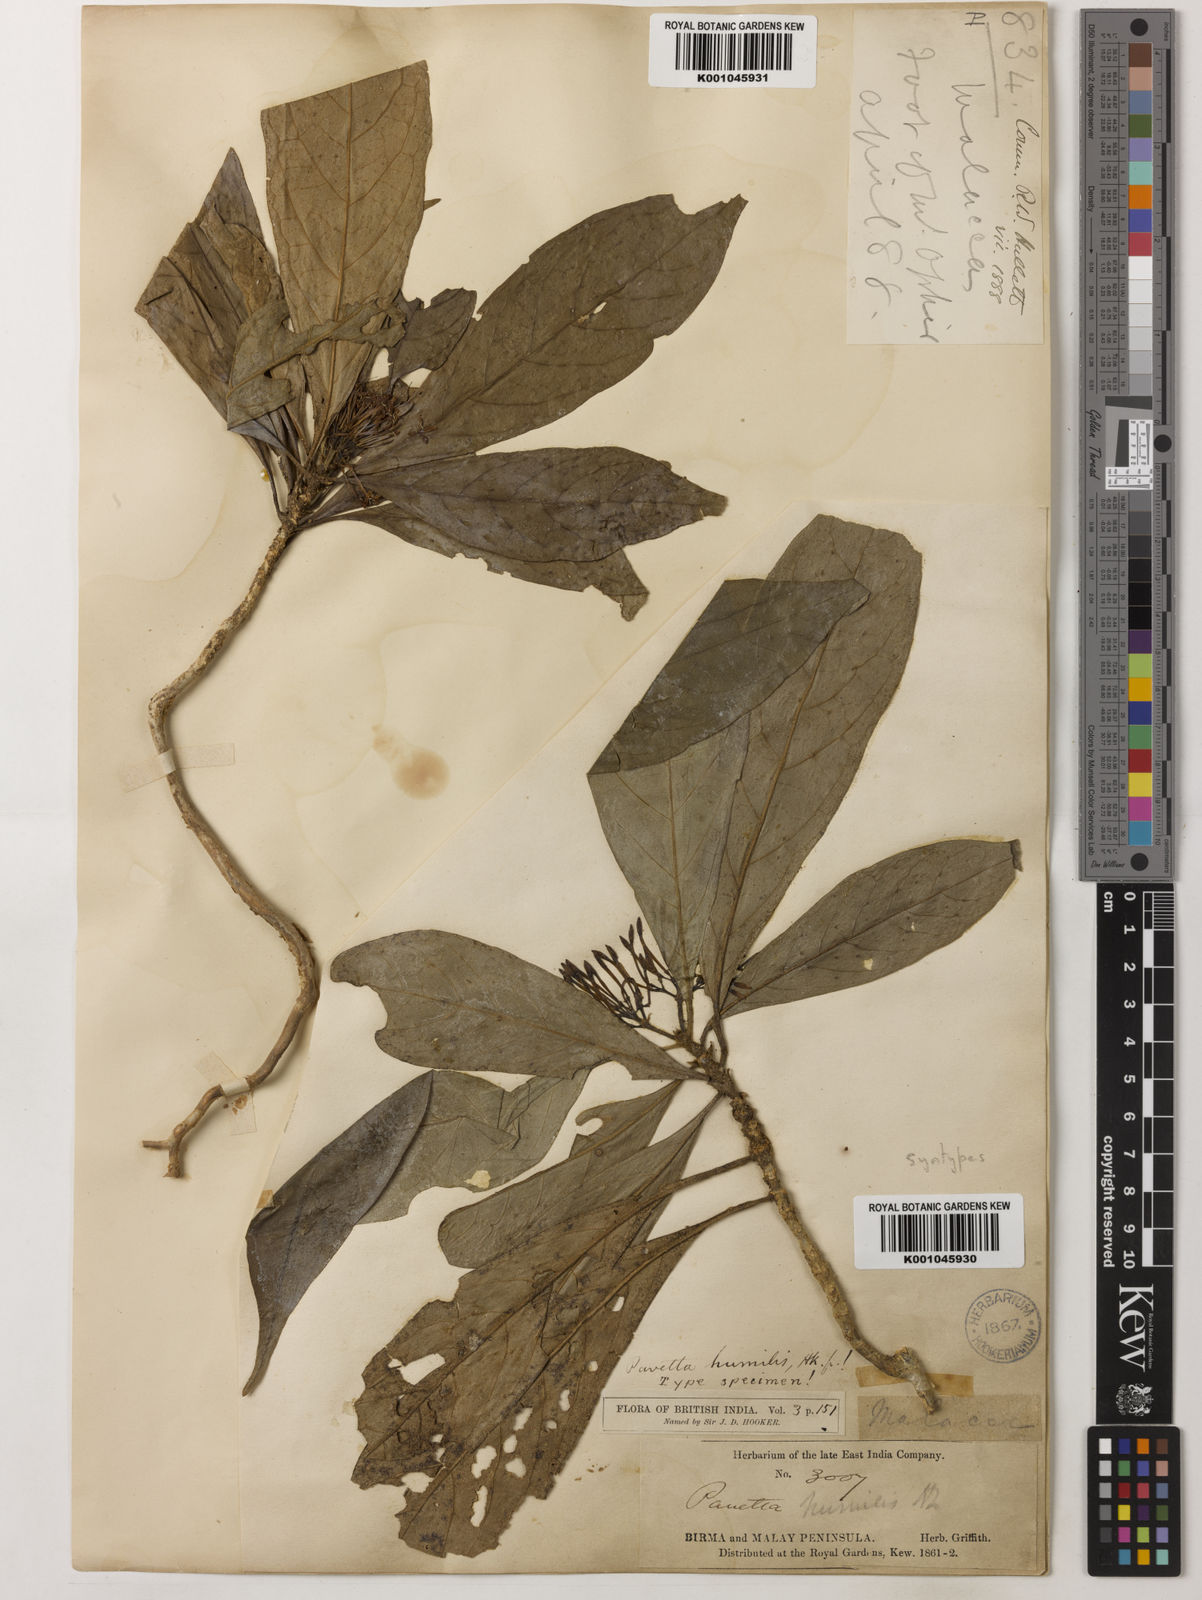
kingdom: Plantae
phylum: Tracheophyta
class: Magnoliopsida
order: Gentianales
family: Rubiaceae
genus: Pavetta
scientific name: Pavetta humilis
